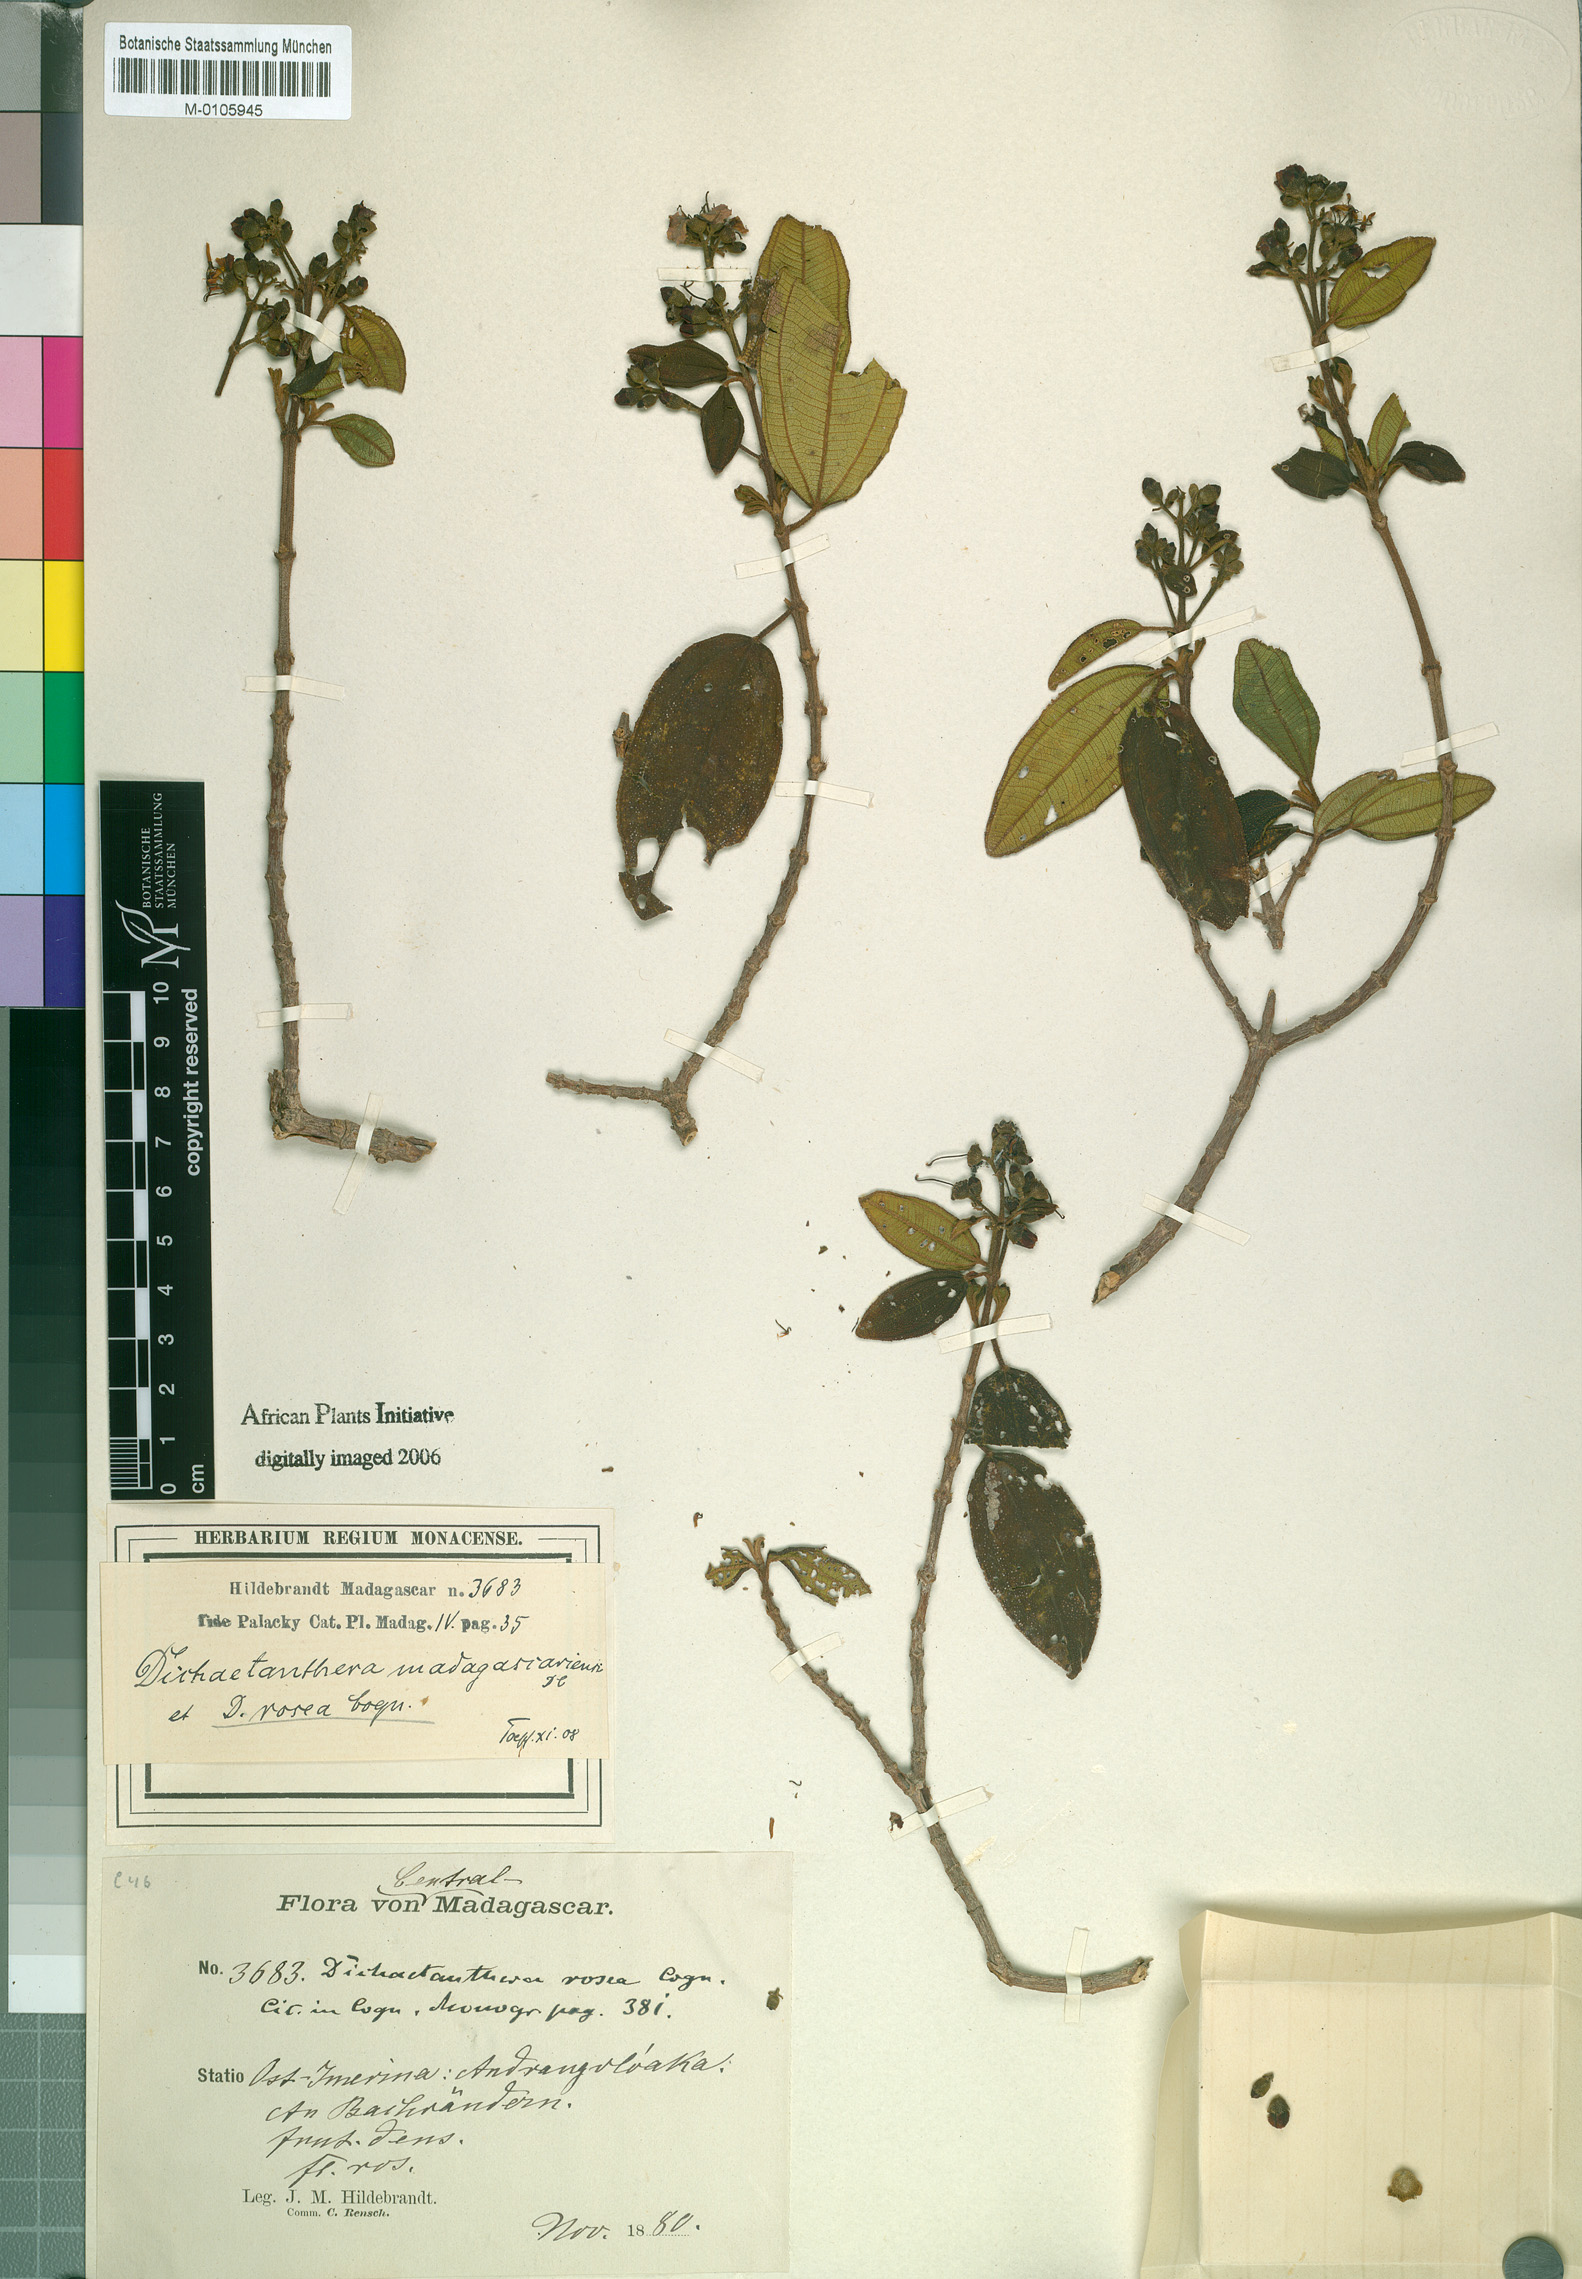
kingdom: Plantae
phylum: Tracheophyta
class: Magnoliopsida
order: Myrtales
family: Melastomataceae
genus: Dichaetanthera
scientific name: Dichaetanthera oblongifolia
